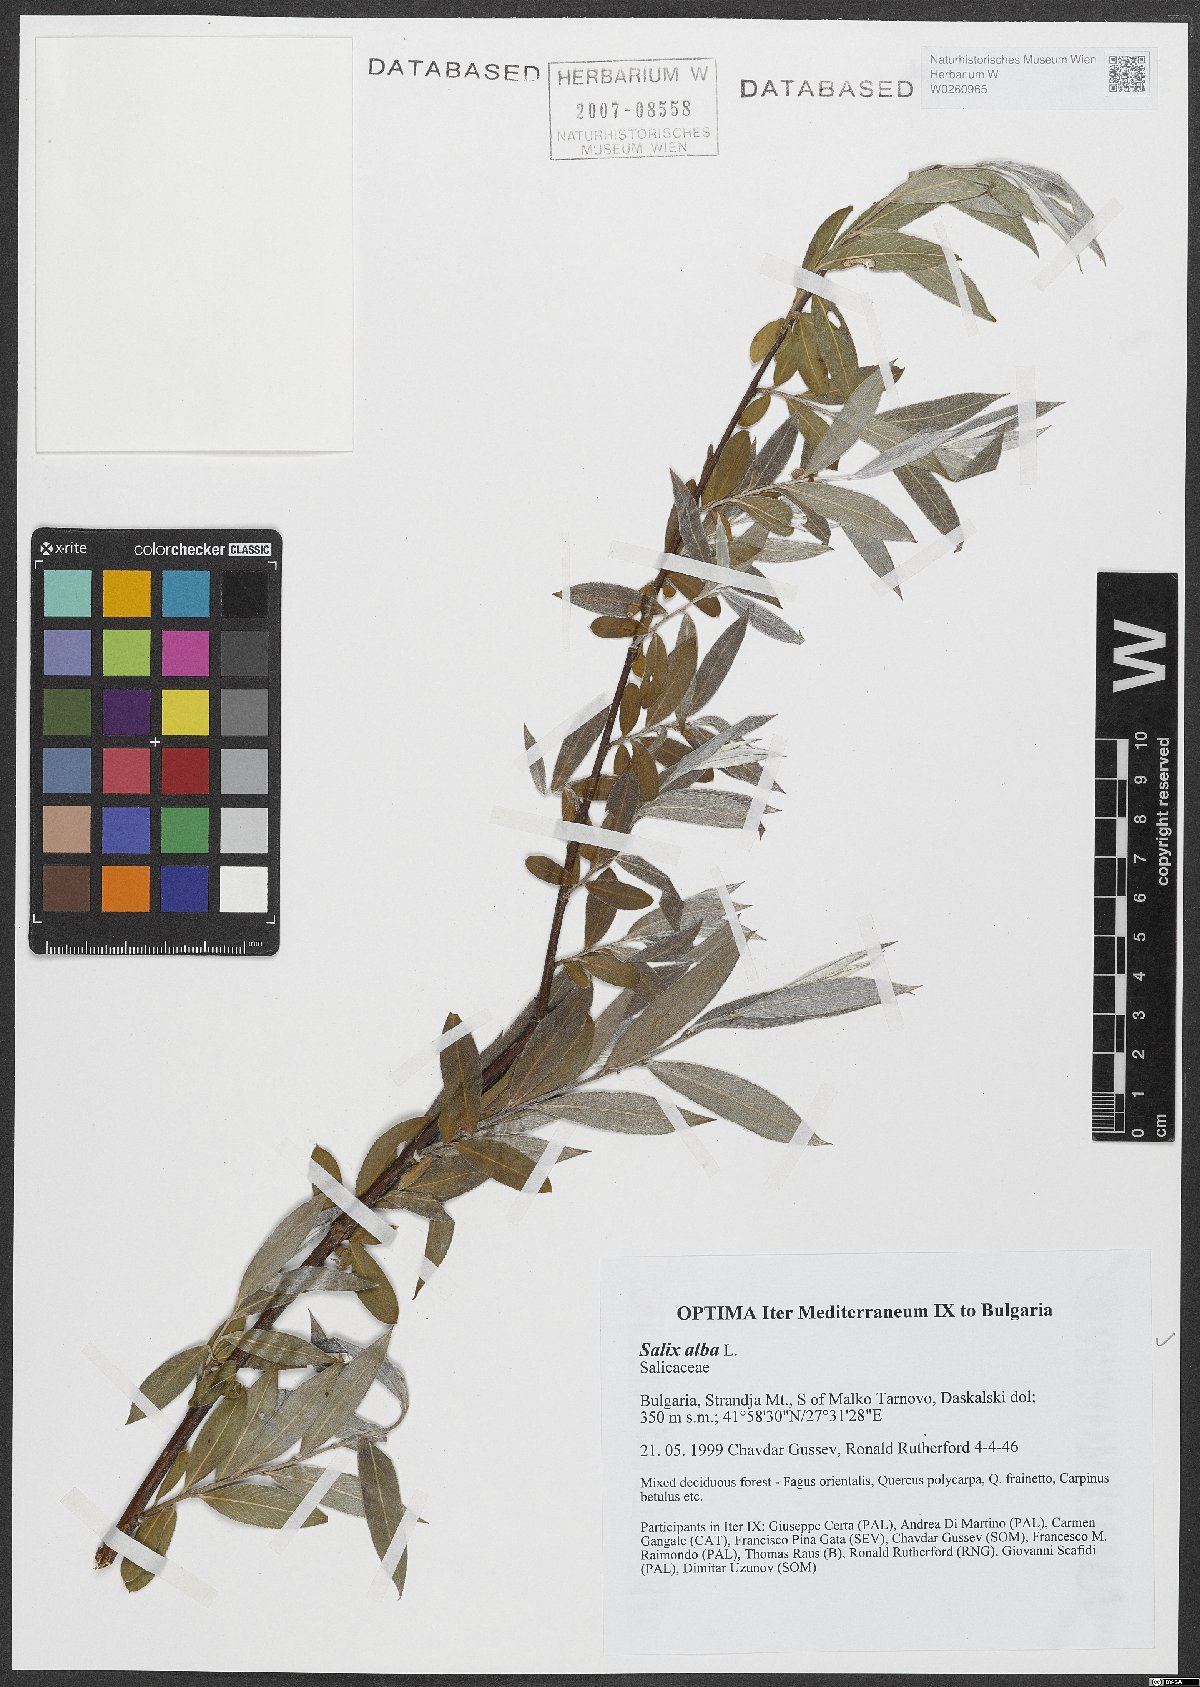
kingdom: Plantae
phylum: Tracheophyta
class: Magnoliopsida
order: Malpighiales
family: Salicaceae
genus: Salix
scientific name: Salix alba
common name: White willow
